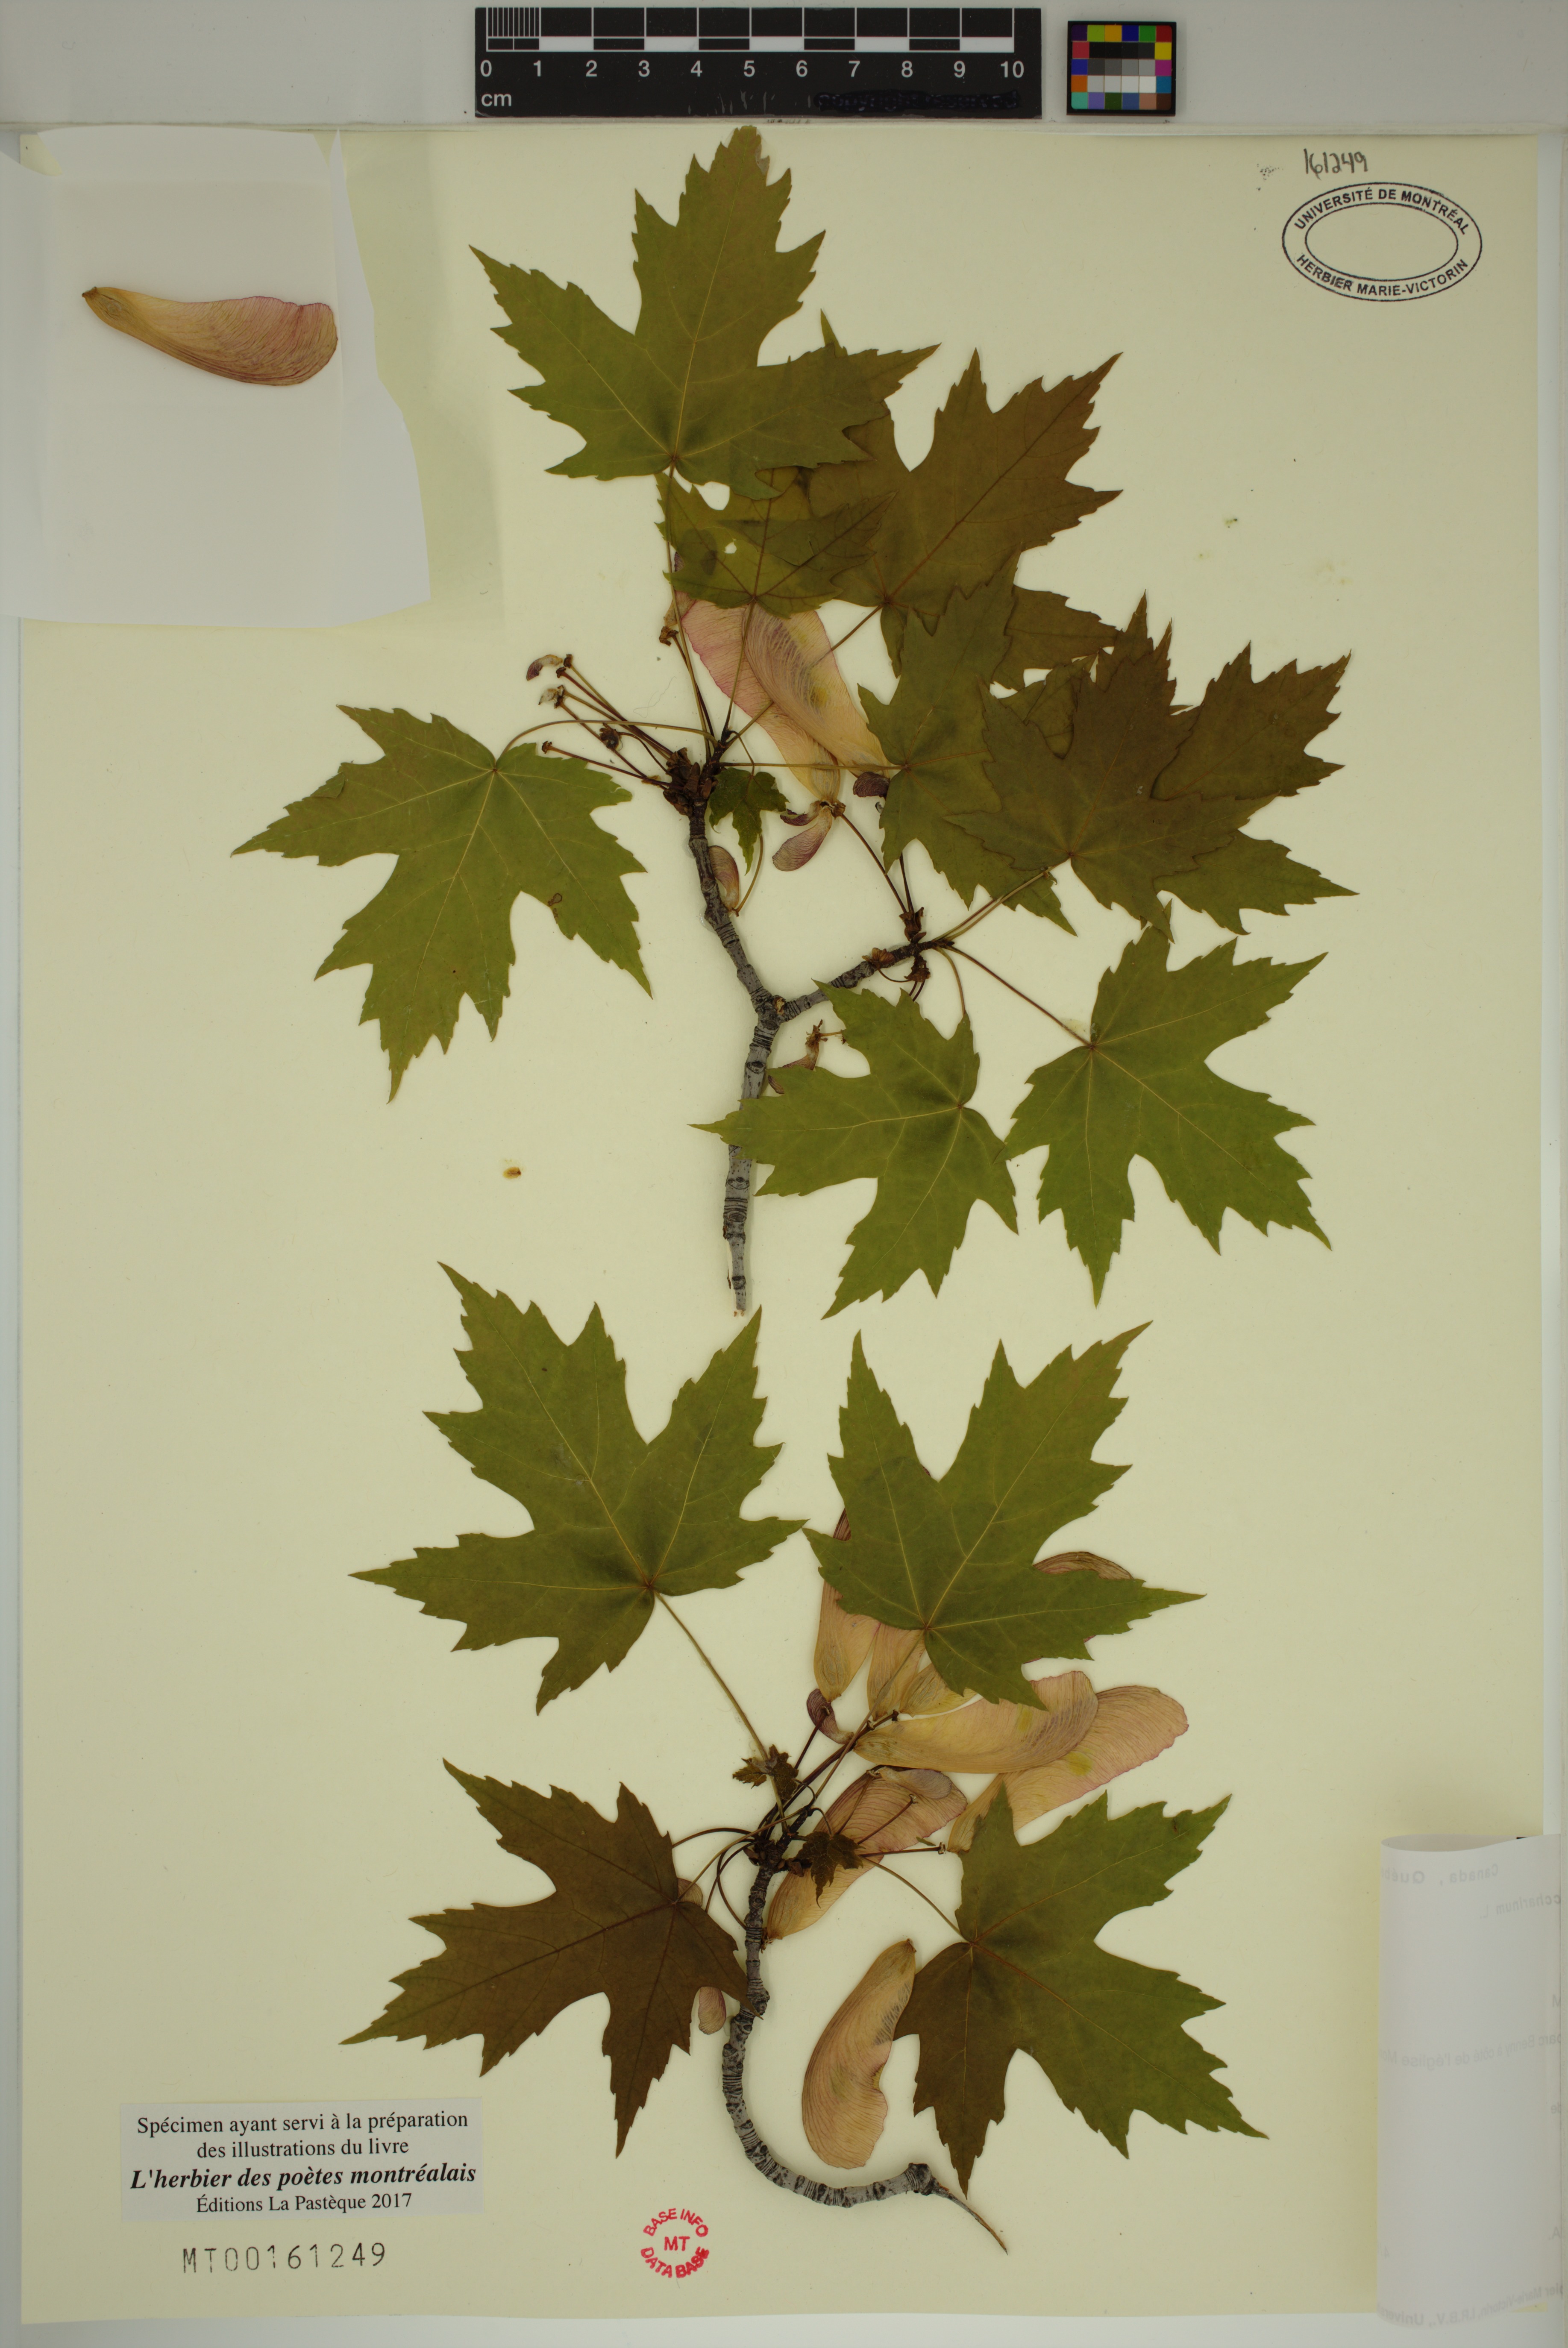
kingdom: Plantae
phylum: Tracheophyta
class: Magnoliopsida
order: Sapindales
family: Sapindaceae
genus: Acer
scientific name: Acer saccharinum
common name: Silver maple
